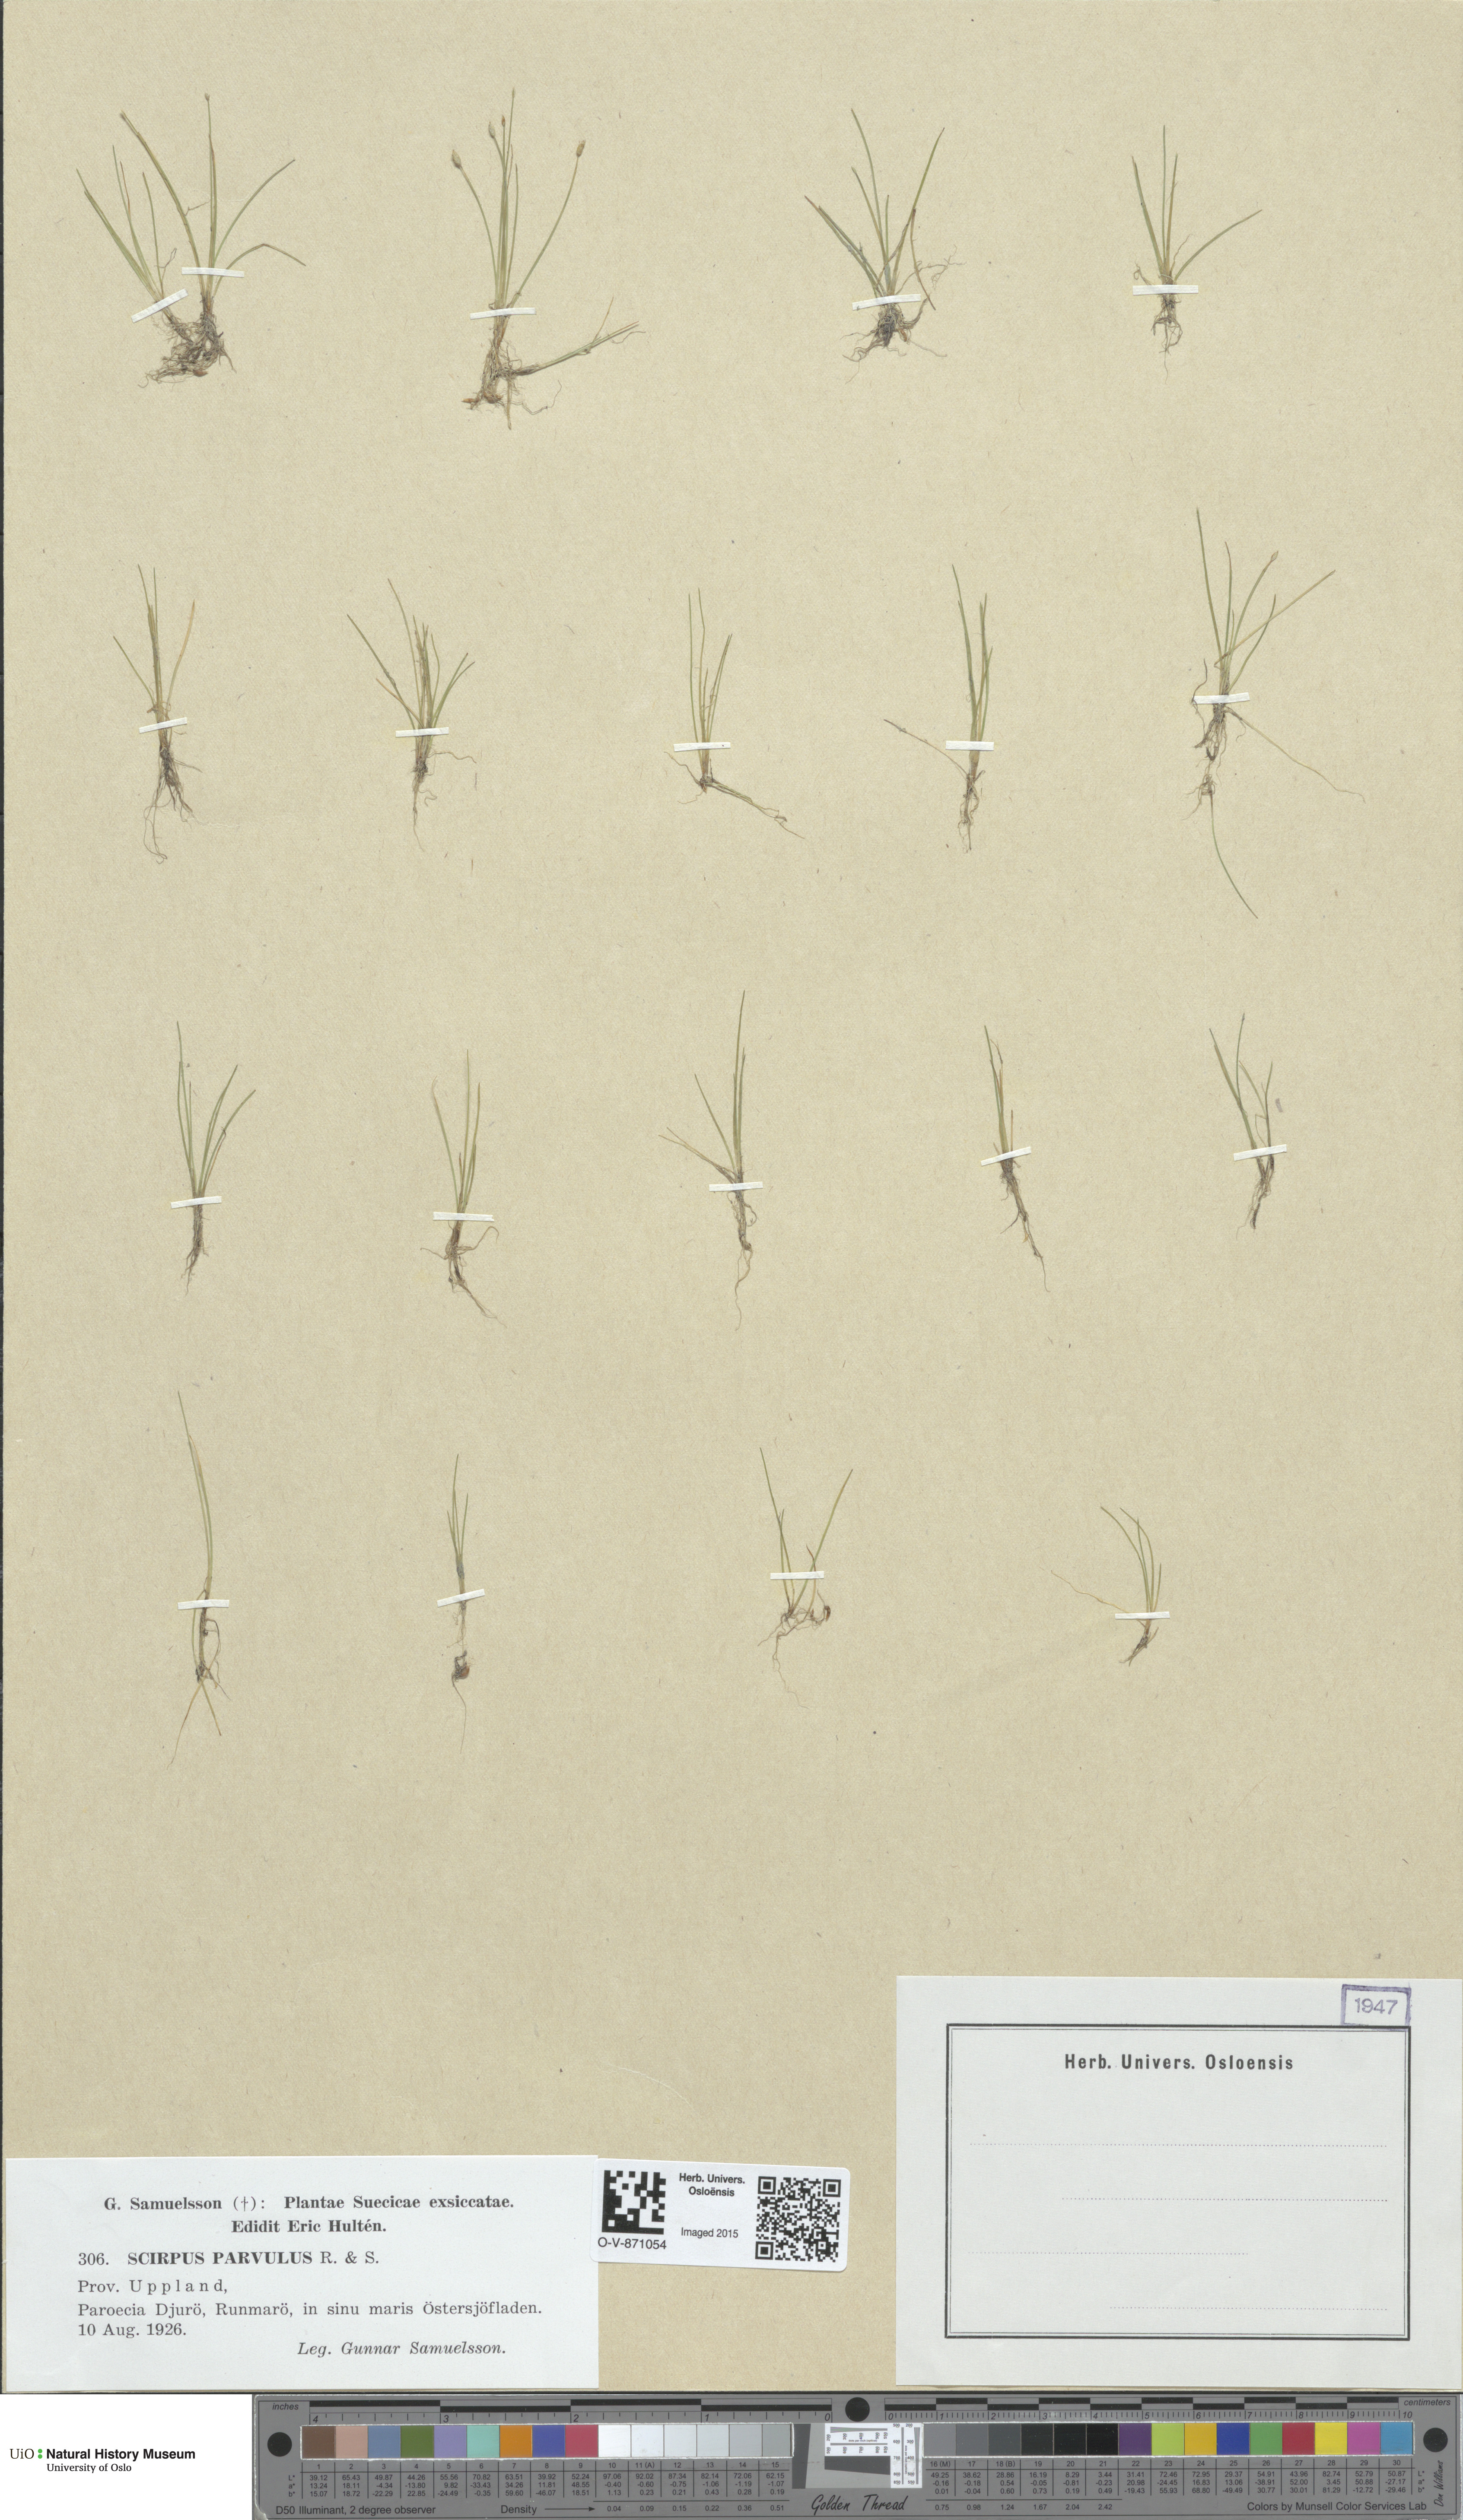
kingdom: Plantae
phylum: Tracheophyta
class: Liliopsida
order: Poales
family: Cyperaceae
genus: Eleocharis
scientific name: Eleocharis parvula
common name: Dwarf spike-rush
